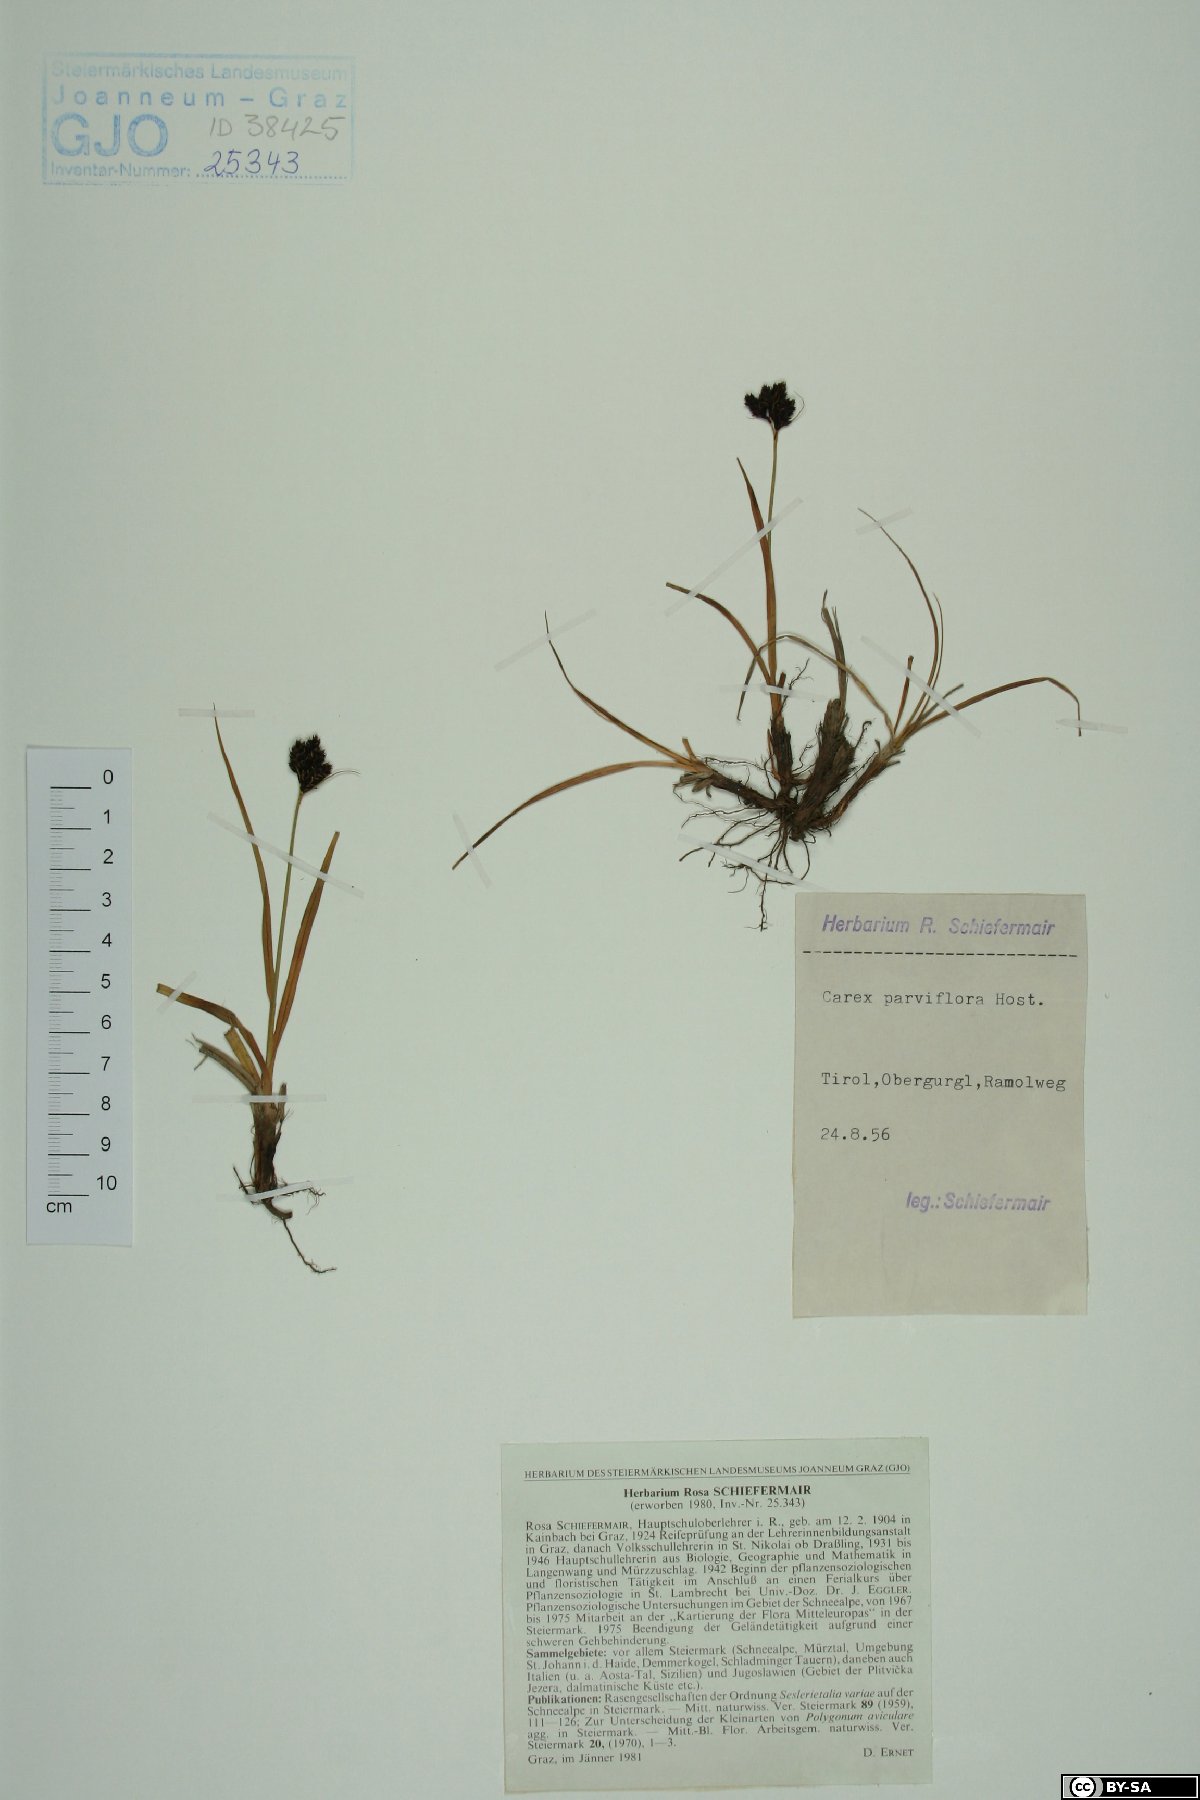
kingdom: Plantae
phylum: Tracheophyta
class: Liliopsida
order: Poales
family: Cyperaceae
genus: Carex
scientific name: Carex parviflora
